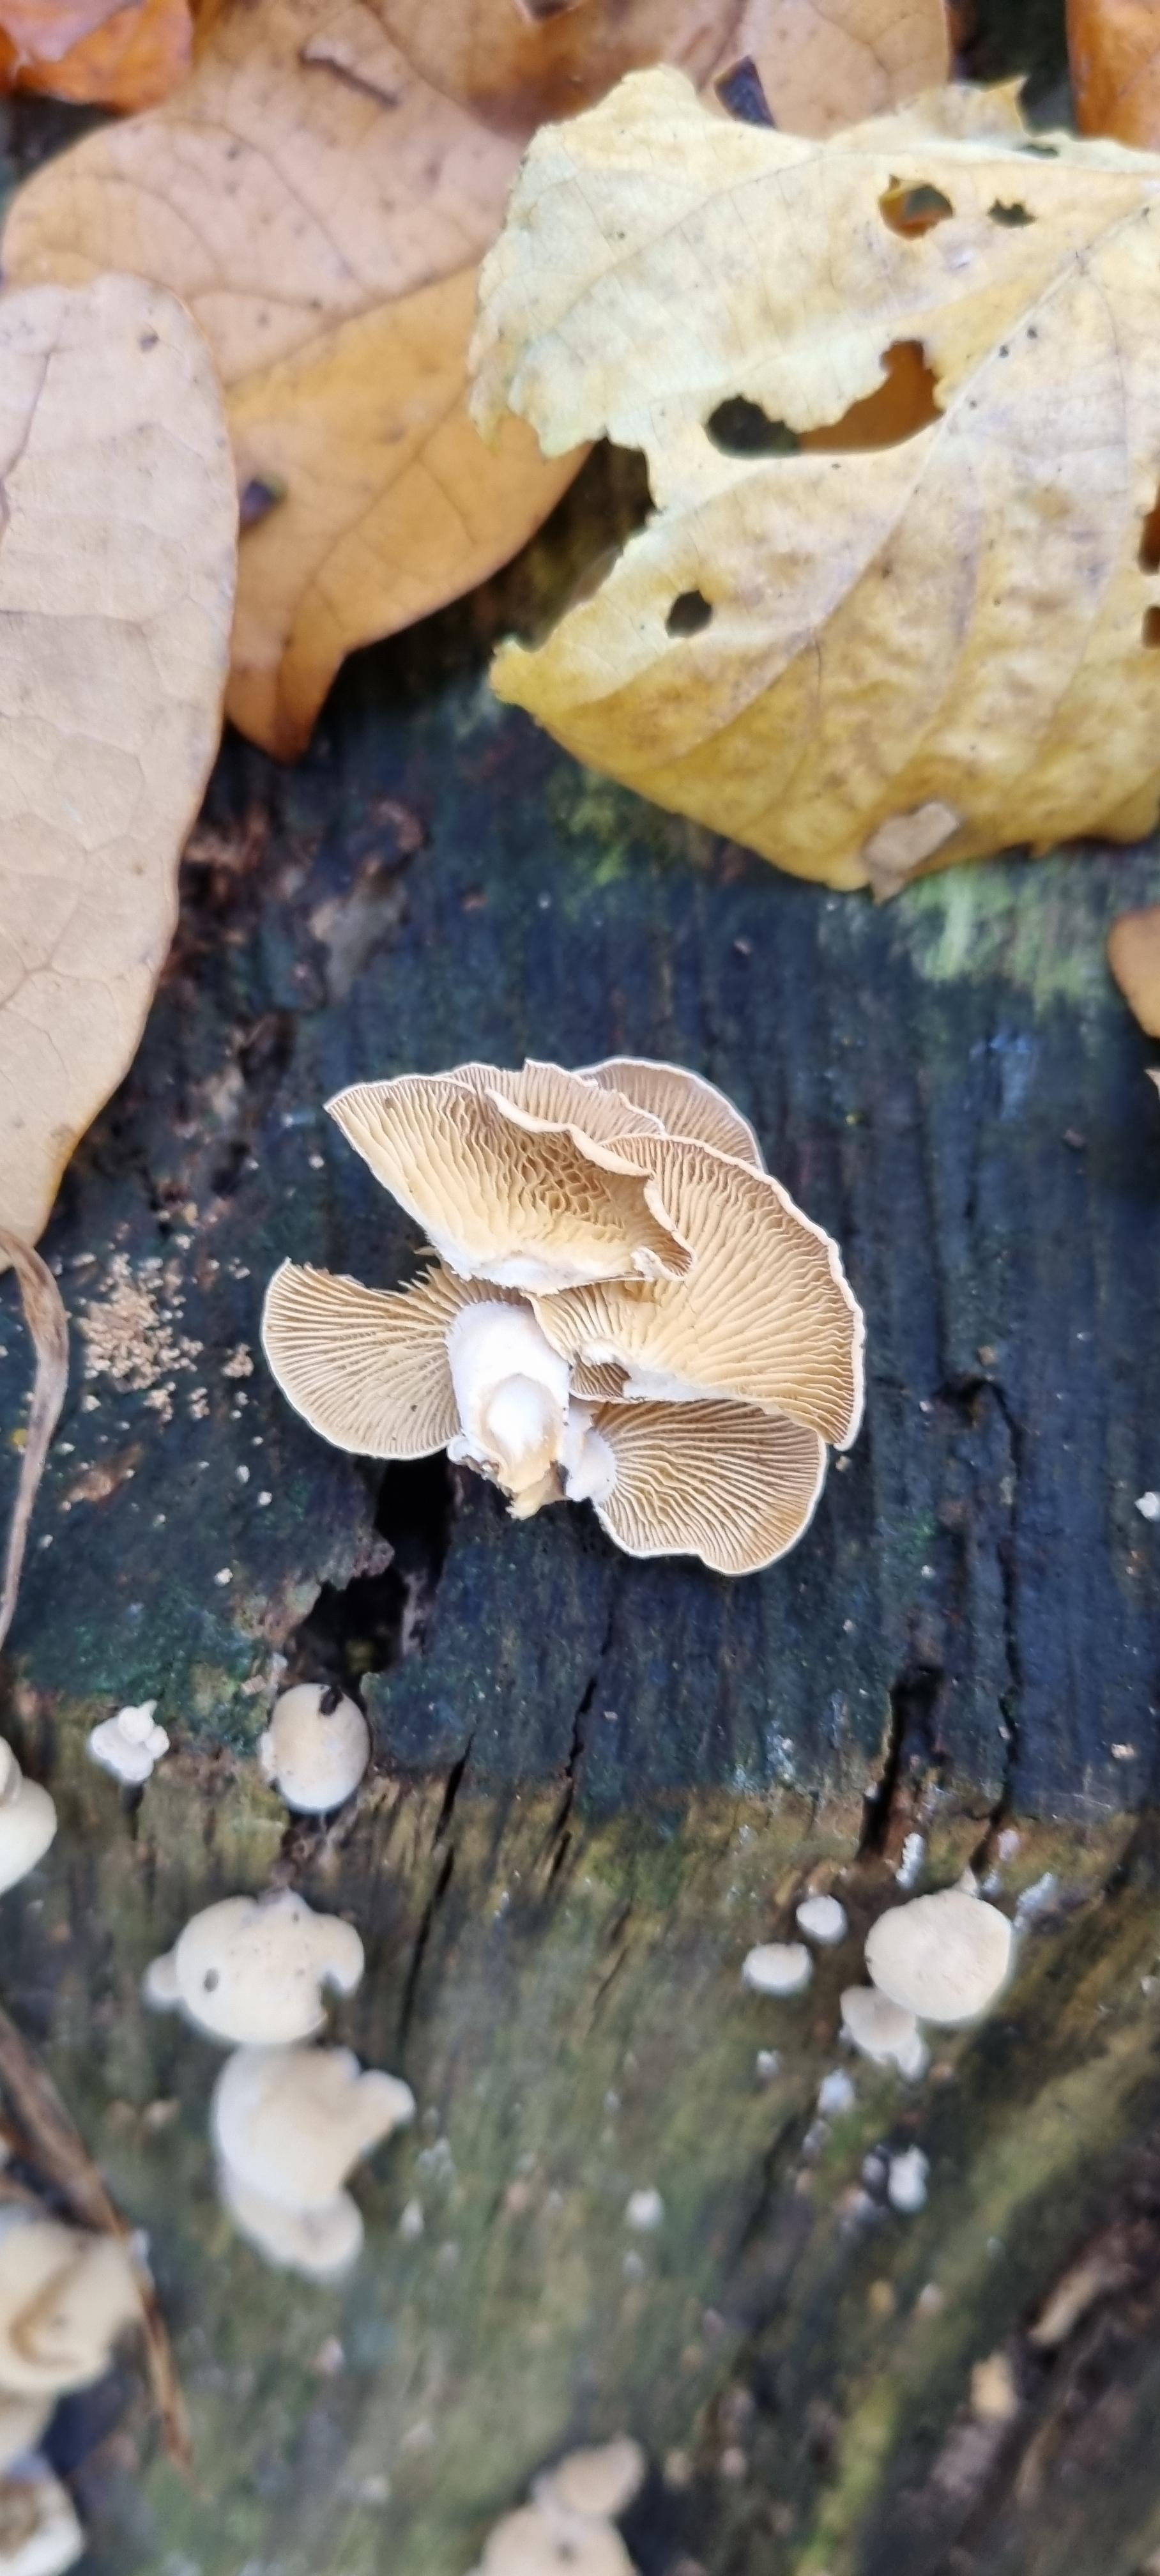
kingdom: Fungi
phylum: Basidiomycota
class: Agaricomycetes
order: Agaricales
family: Mycenaceae
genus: Panellus
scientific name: Panellus stipticus
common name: kliddet epaulethat
